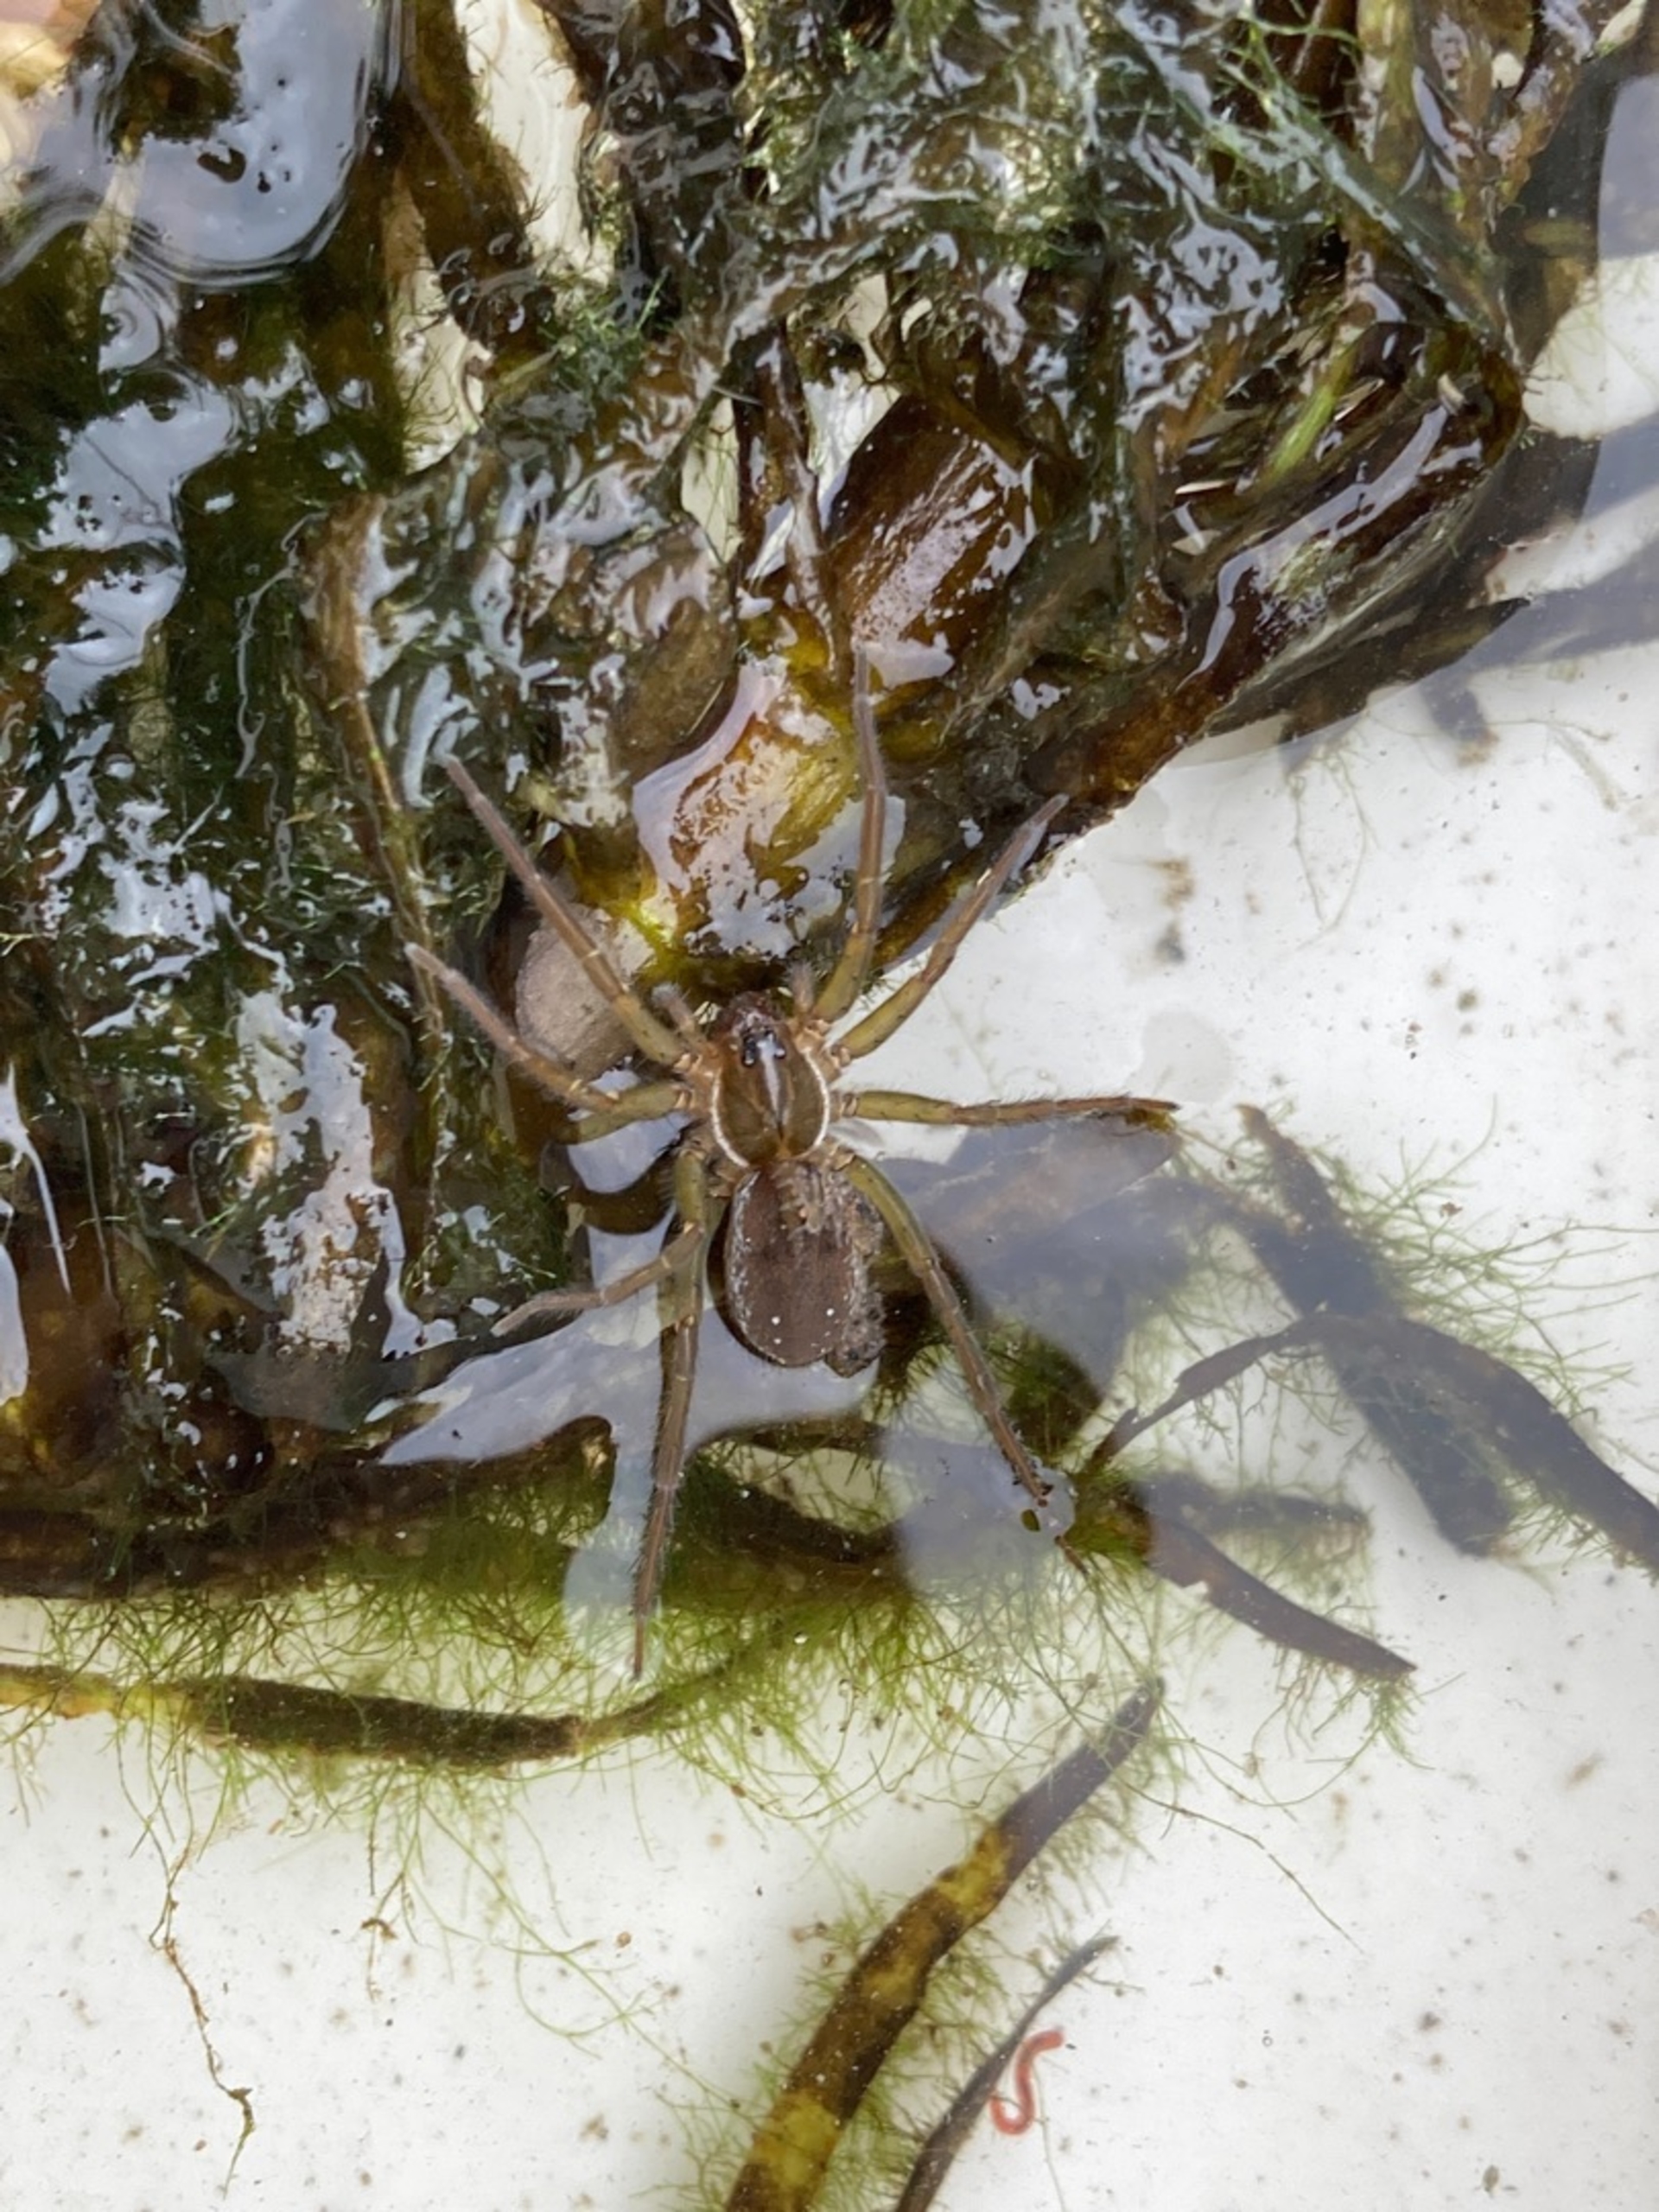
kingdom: Animalia
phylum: Arthropoda
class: Arachnida
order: Araneae
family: Lycosidae
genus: Pirata
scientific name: Pirata
